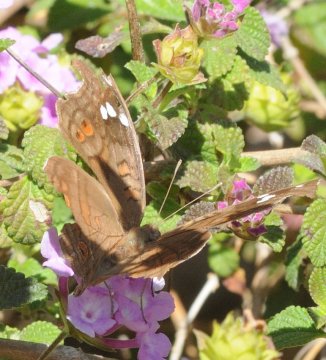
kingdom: Animalia
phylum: Arthropoda
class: Insecta
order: Lepidoptera
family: Nymphalidae
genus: Junonia
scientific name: Junonia natalica
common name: Natal Pansy
